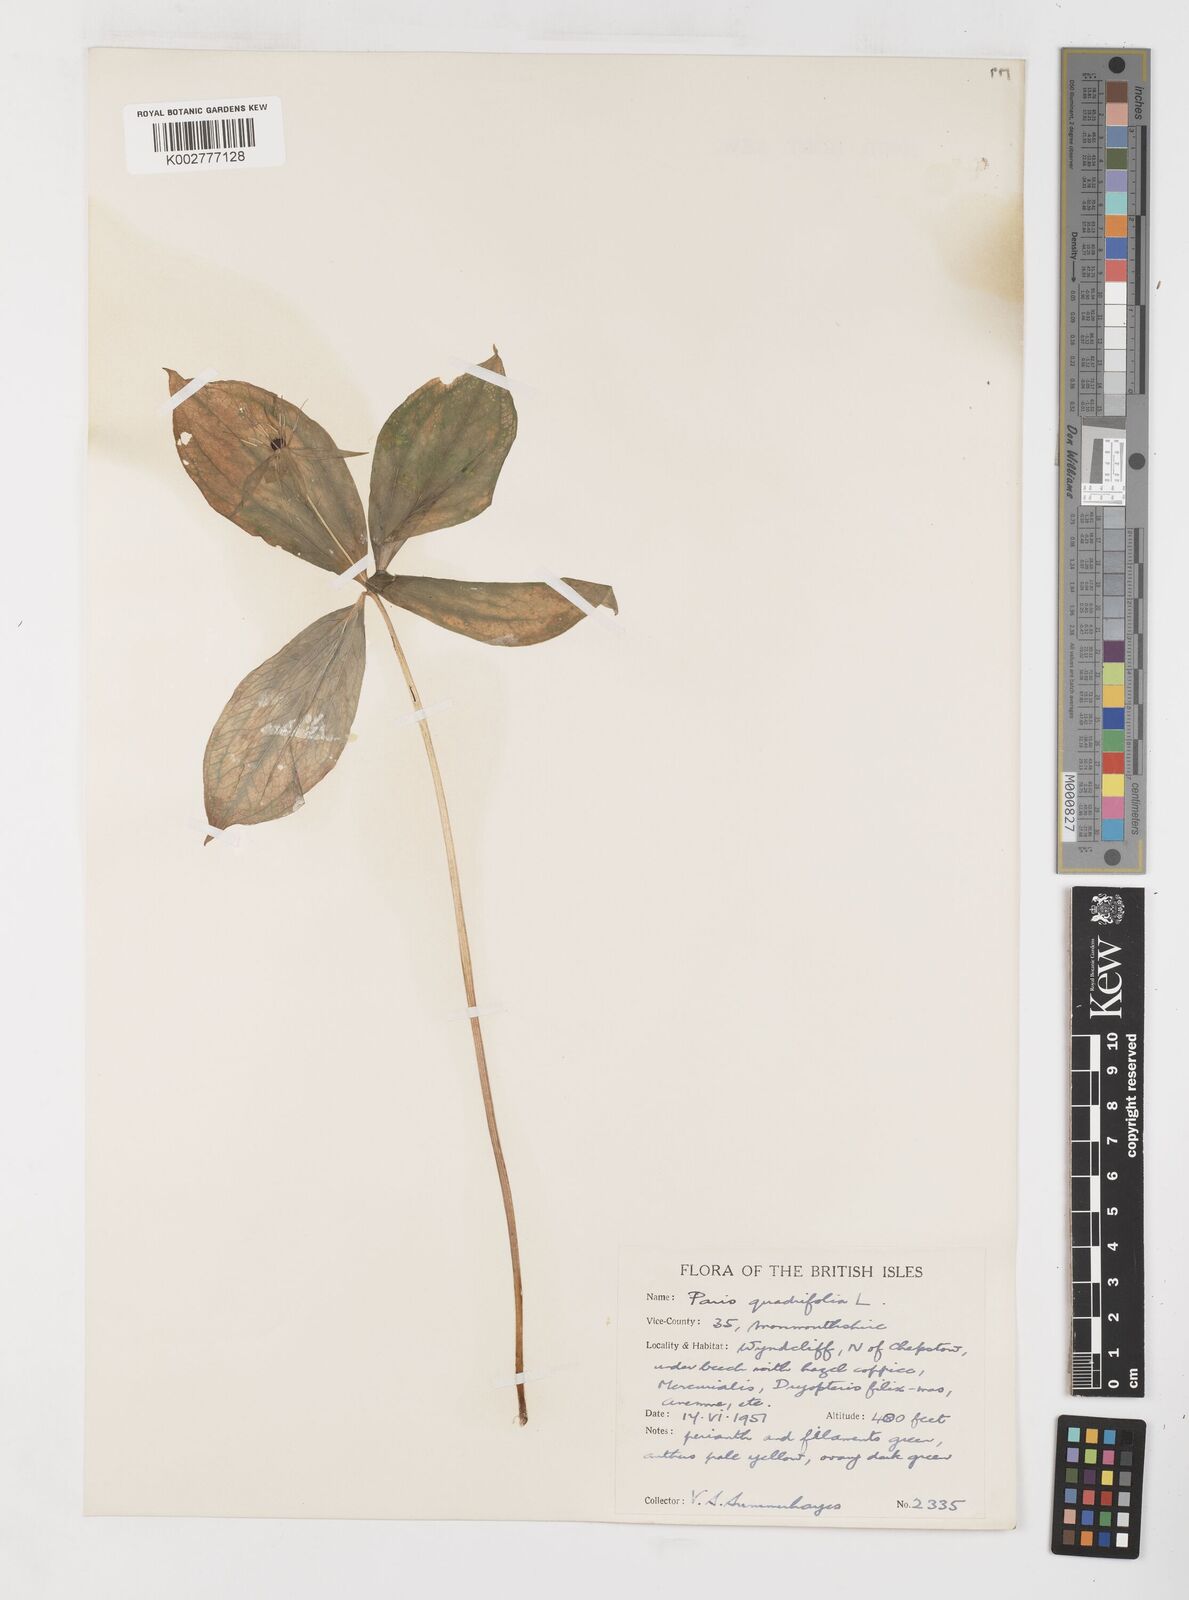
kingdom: Plantae
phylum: Tracheophyta
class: Liliopsida
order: Liliales
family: Melanthiaceae
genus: Paris
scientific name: Paris quadrifolia
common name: Herb-paris
